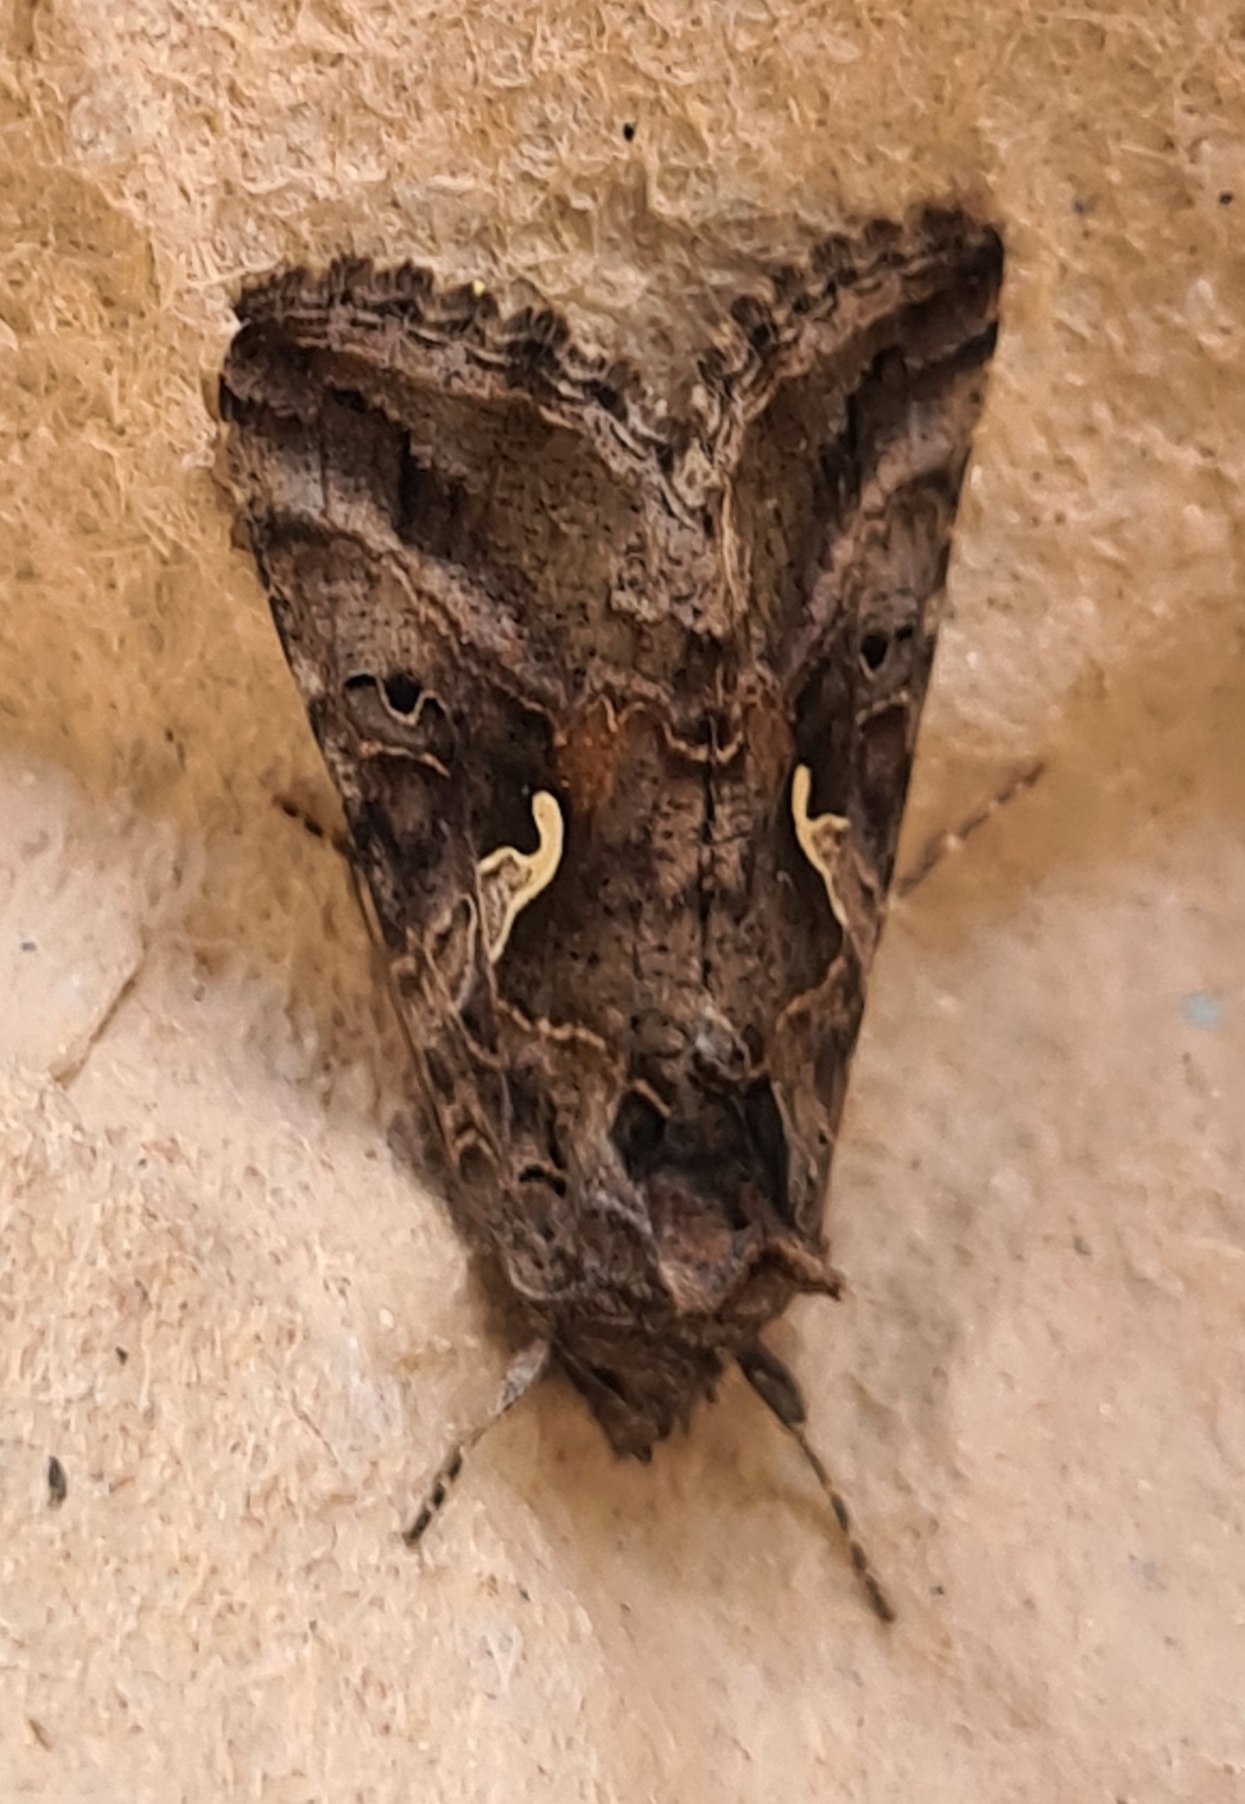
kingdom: Animalia
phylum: Arthropoda
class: Insecta
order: Lepidoptera
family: Noctuidae
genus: Autographa
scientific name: Autographa gamma
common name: Gammaugle
